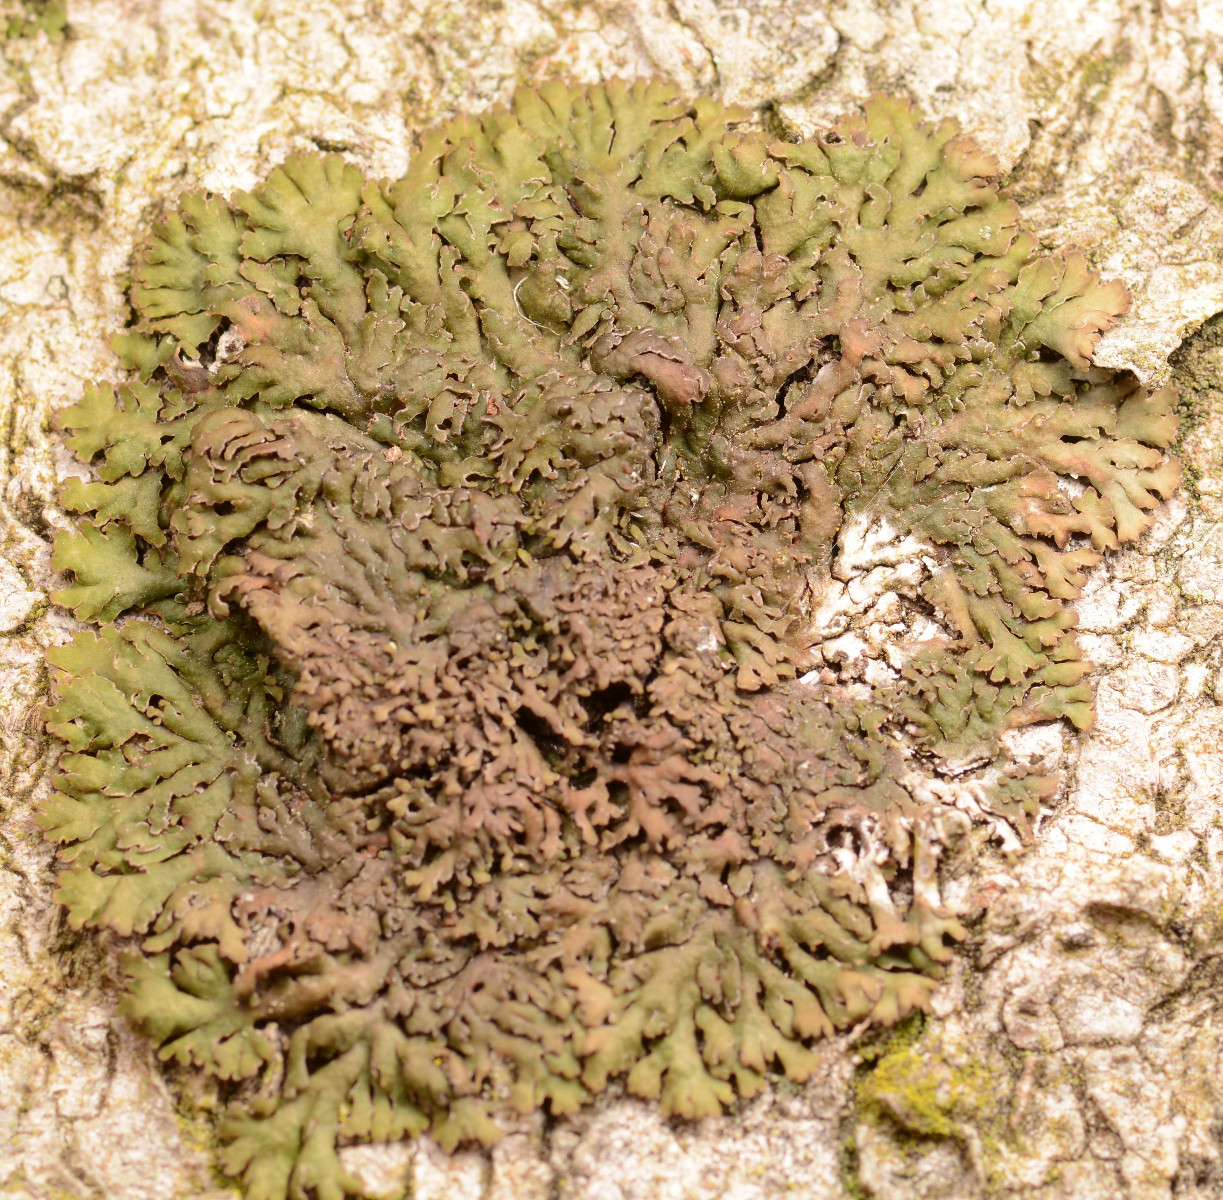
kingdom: Fungi
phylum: Ascomycota
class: Lecanoromycetes
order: Caliciales
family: Physciaceae
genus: Kurokawia
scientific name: Kurokawia runcinata
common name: brun frynselav
